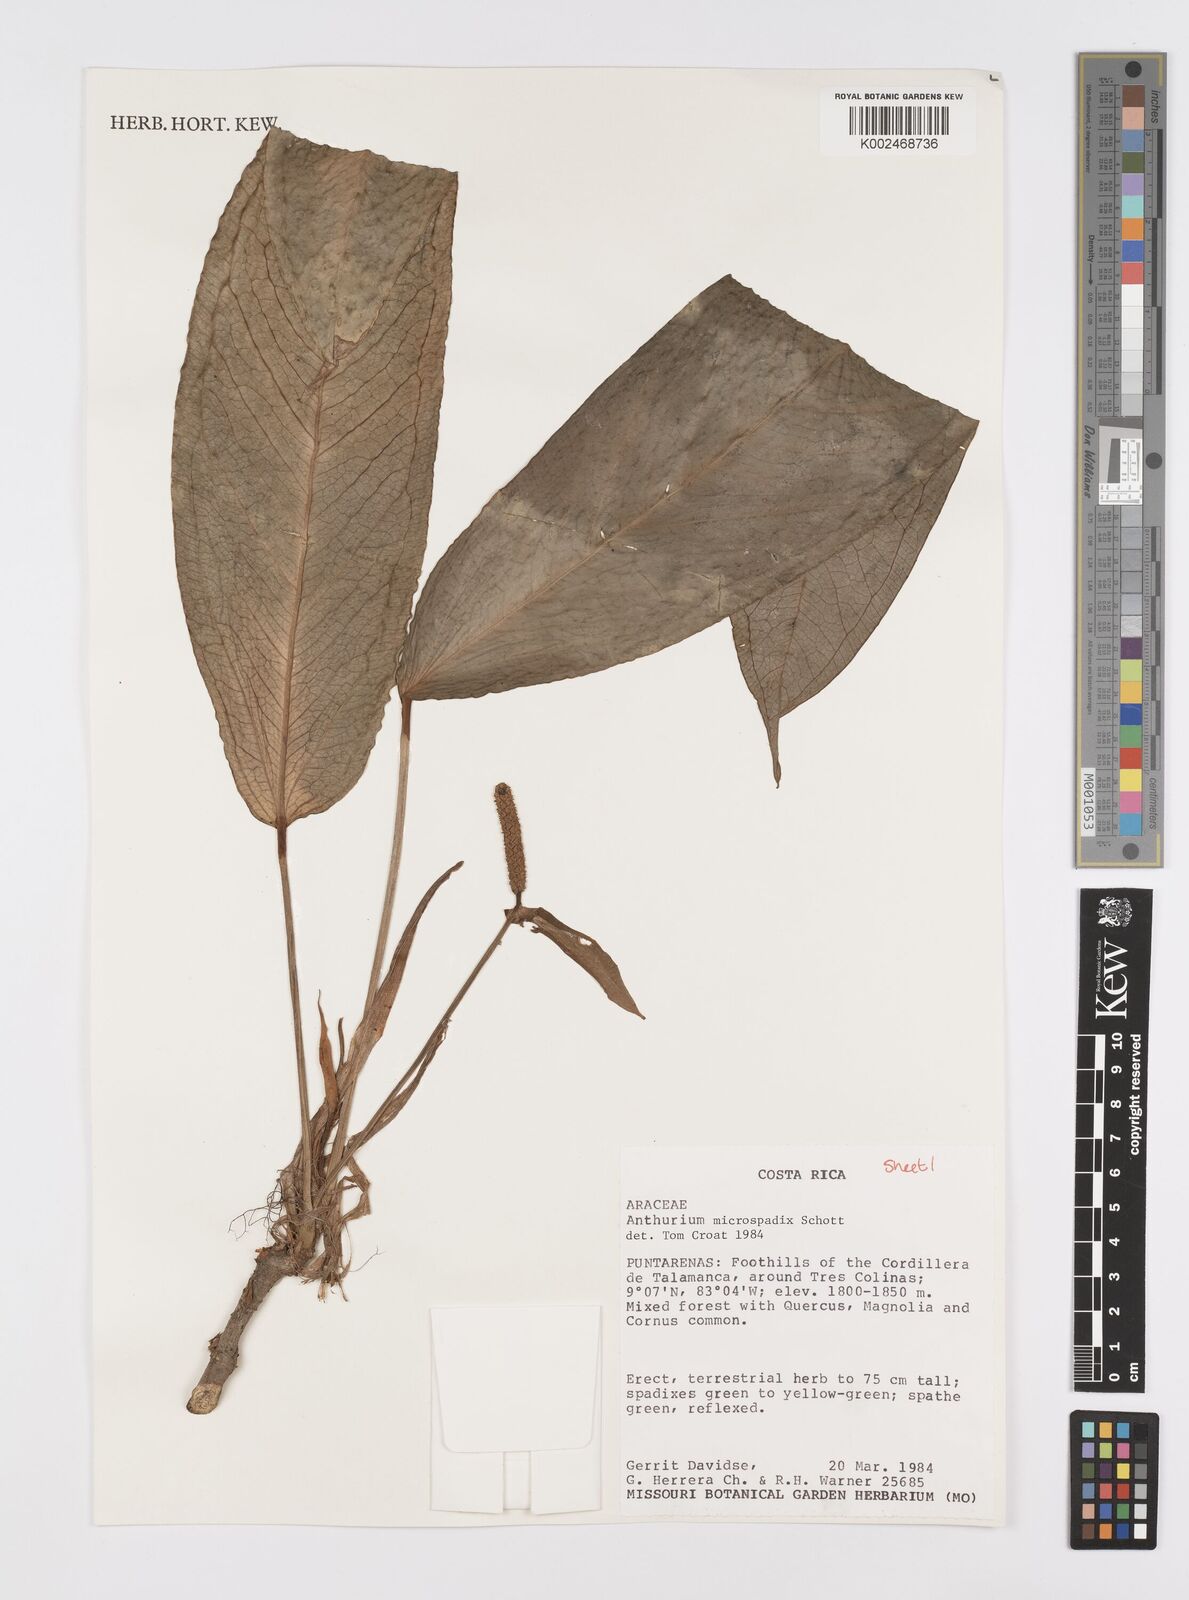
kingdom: Plantae
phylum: Tracheophyta
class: Liliopsida
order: Alismatales
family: Araceae
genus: Anthurium
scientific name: Anthurium microspadix
